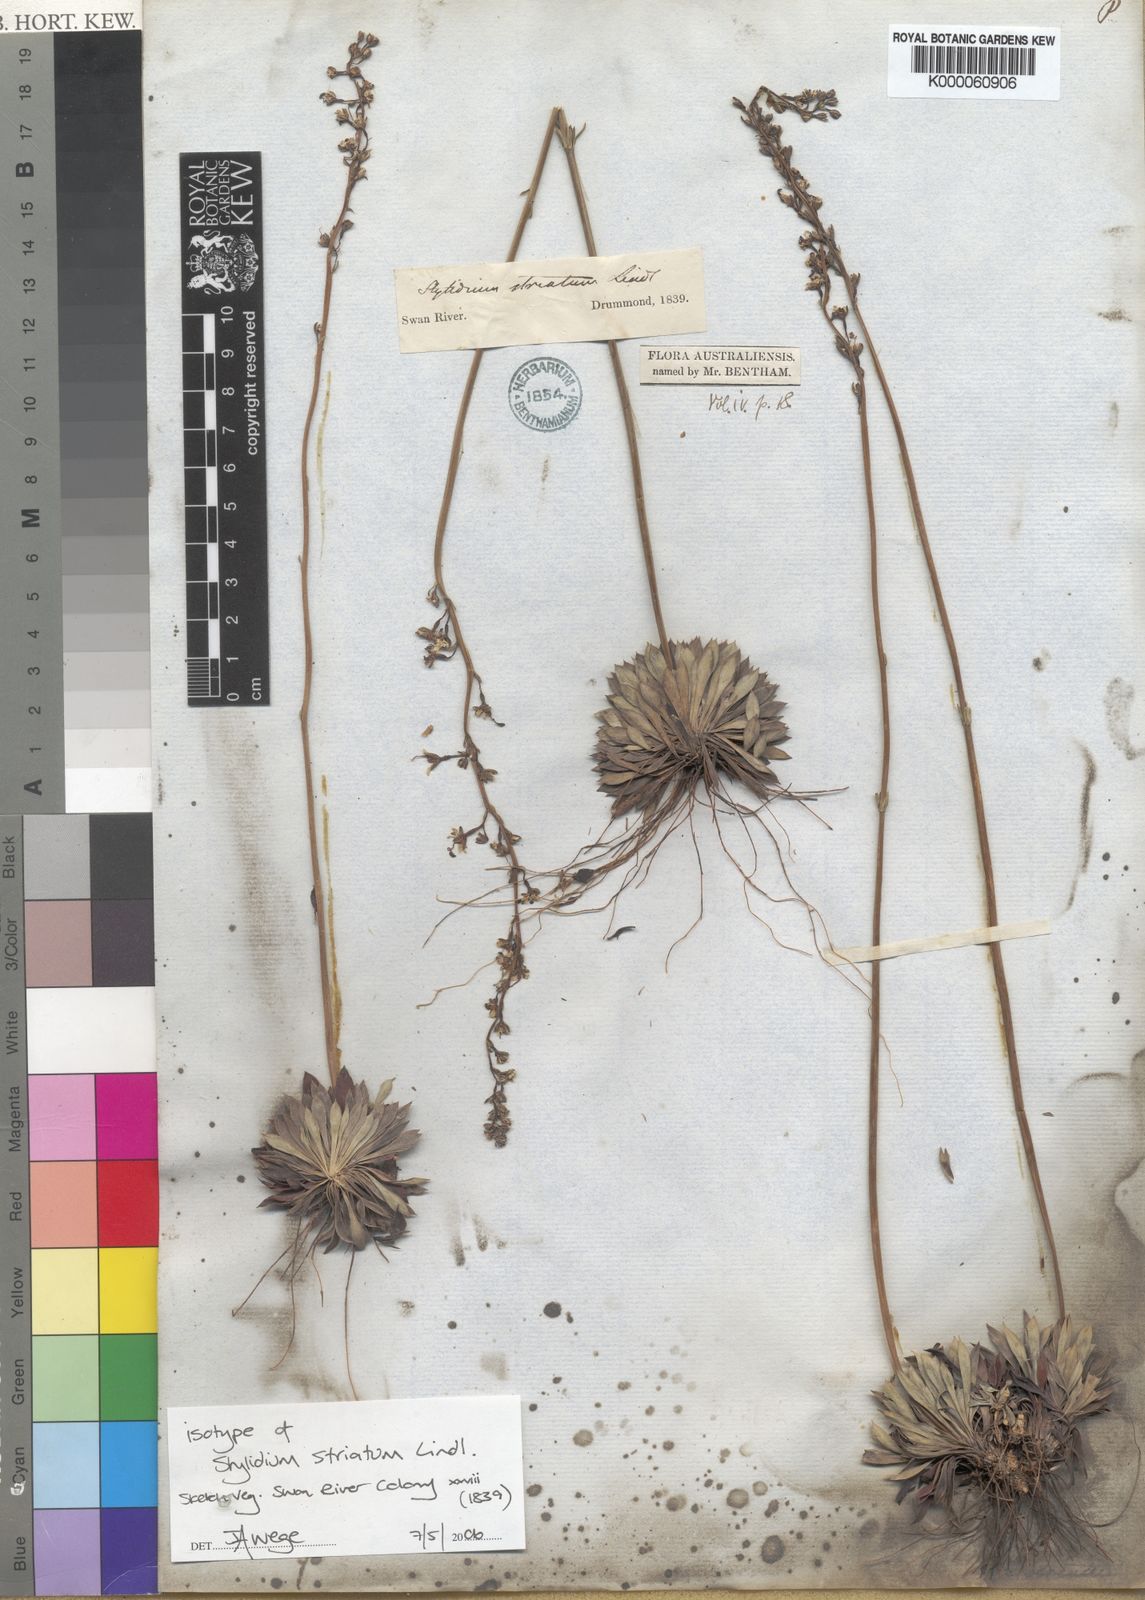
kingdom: Plantae
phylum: Tracheophyta
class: Magnoliopsida
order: Asterales
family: Stylidiaceae
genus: Stylidium
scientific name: Stylidium striatum
